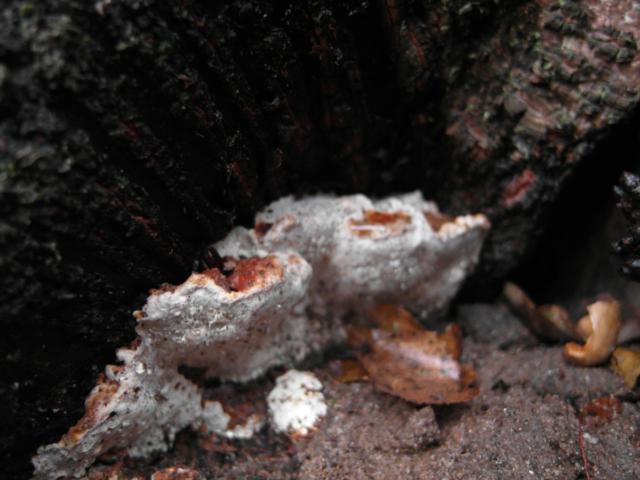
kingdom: Fungi
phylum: Basidiomycota
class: Agaricomycetes
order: Russulales
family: Bondarzewiaceae
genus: Heterobasidion
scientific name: Heterobasidion annosum
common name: almindelig rodfordærver
